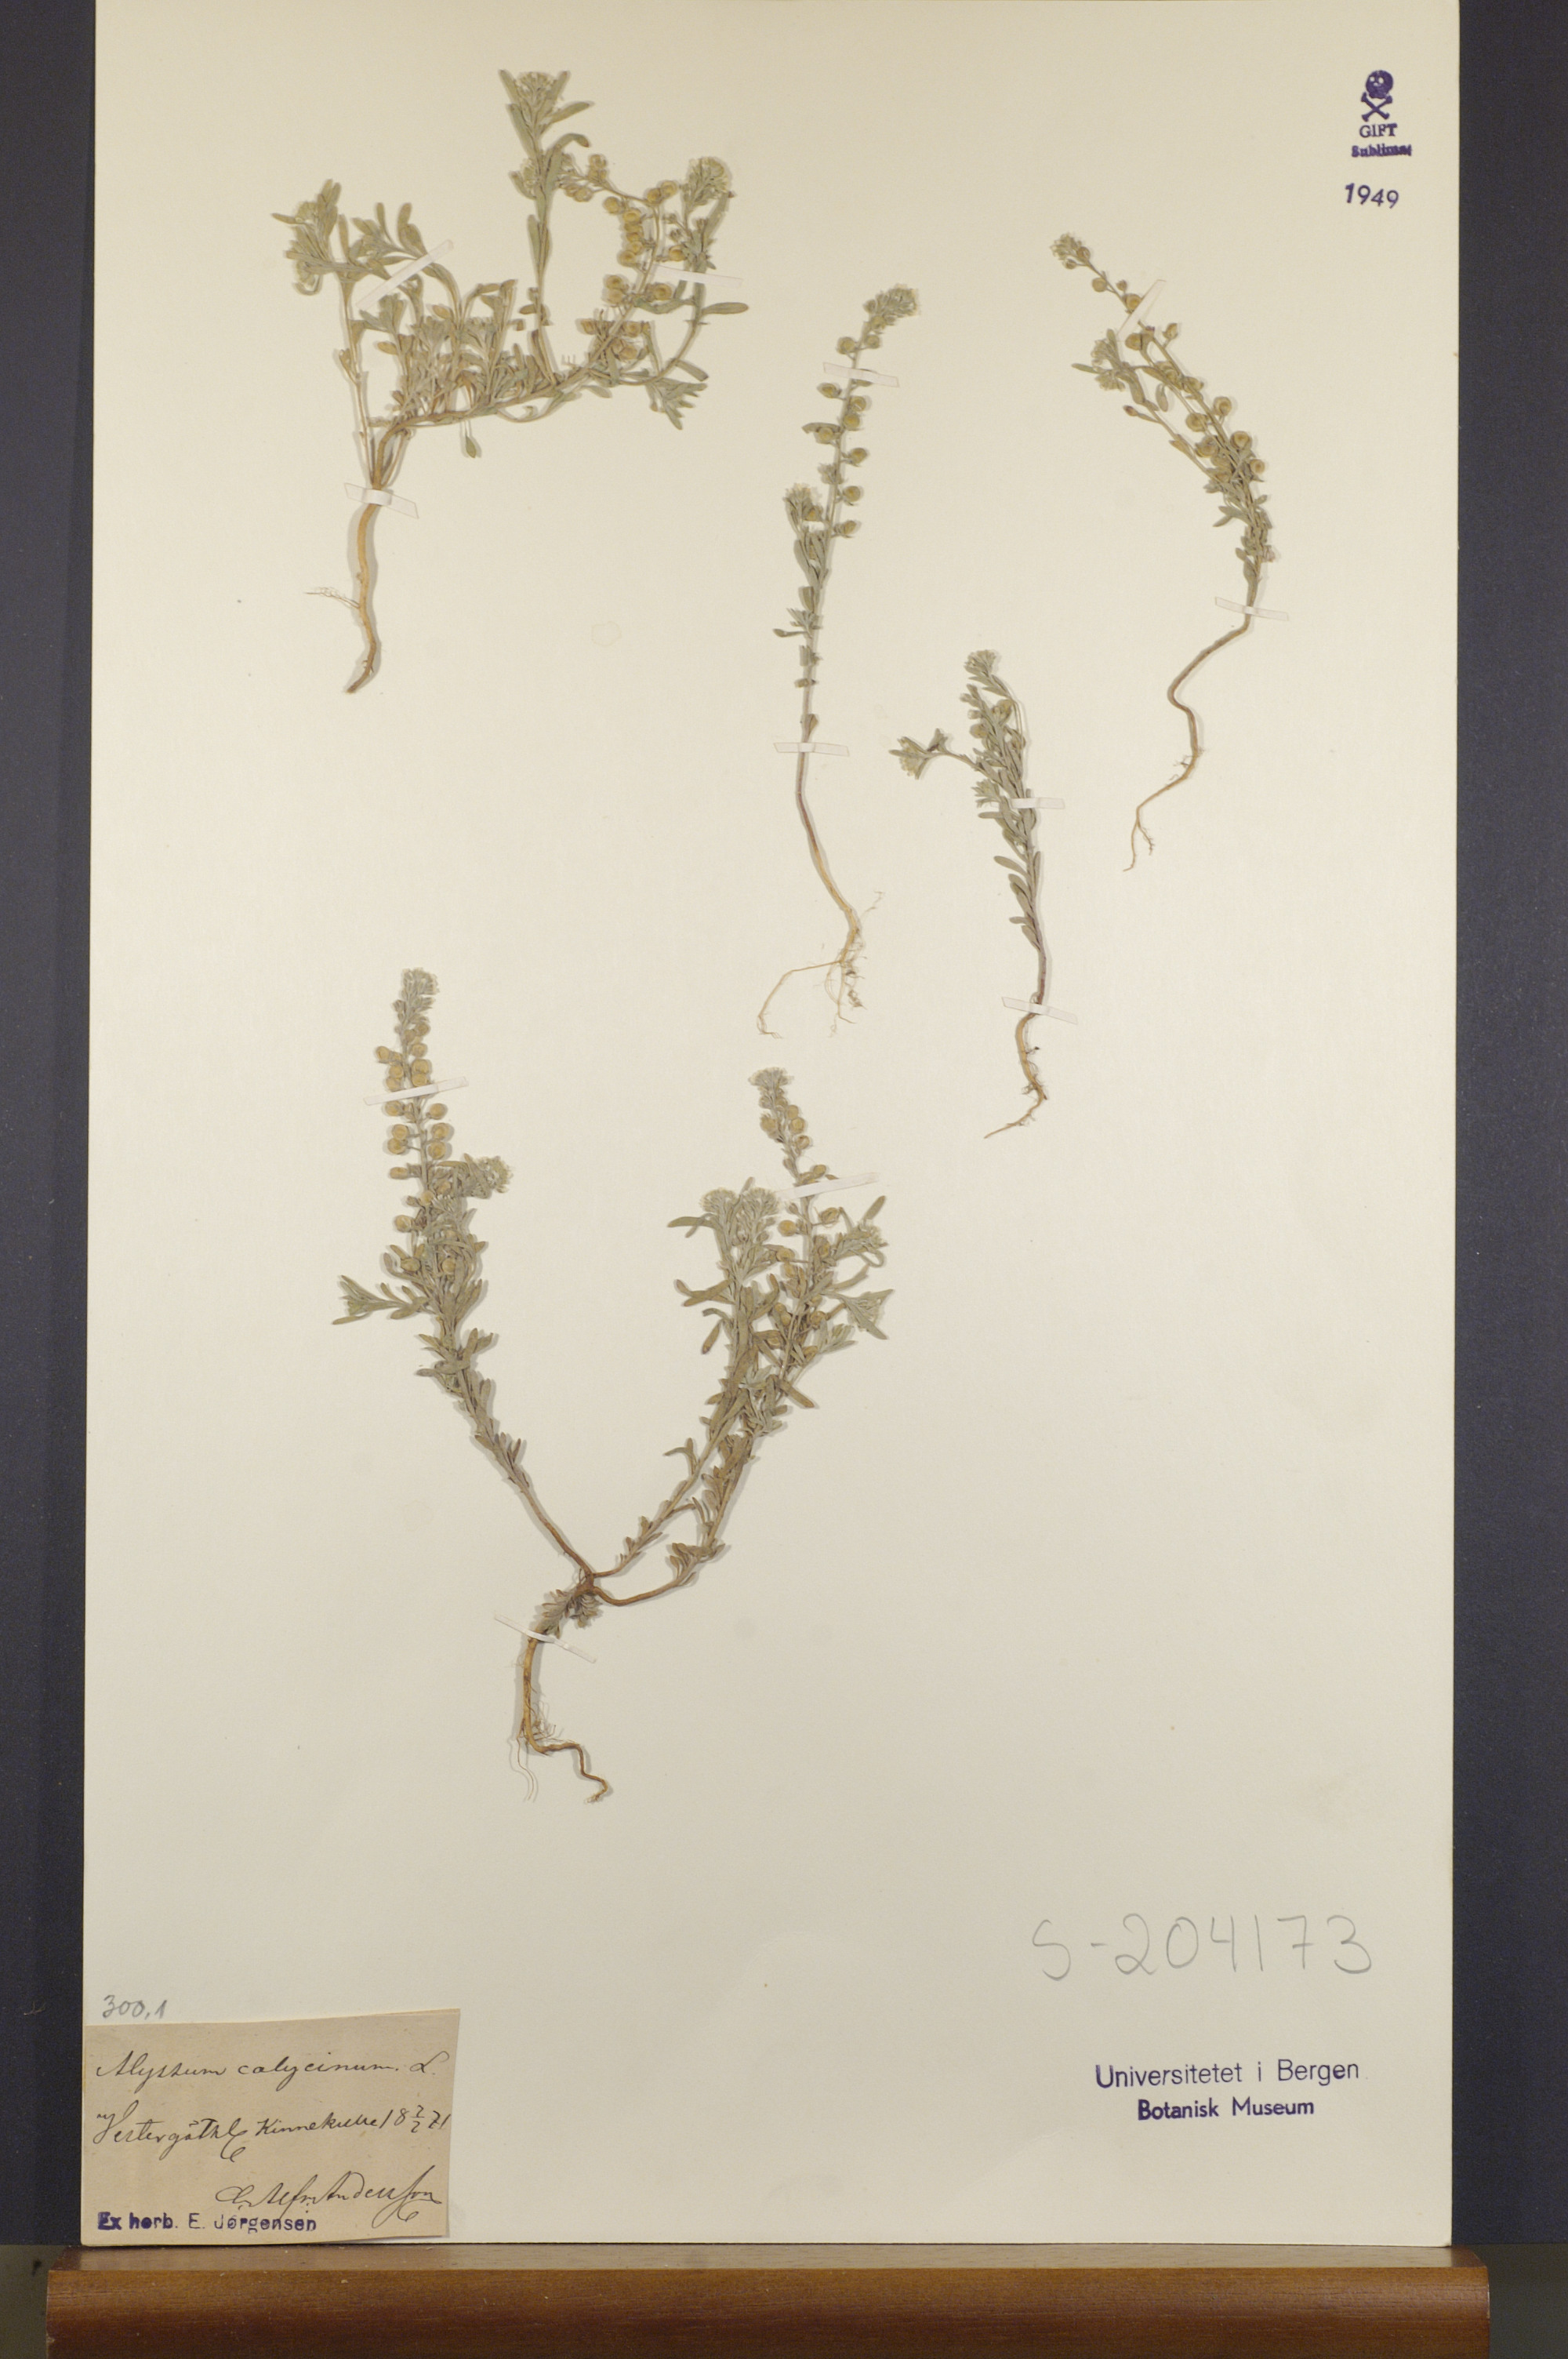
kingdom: Plantae
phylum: Tracheophyta
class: Magnoliopsida
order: Brassicales
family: Brassicaceae
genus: Alyssum
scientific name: Alyssum alyssoides
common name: Small alison
